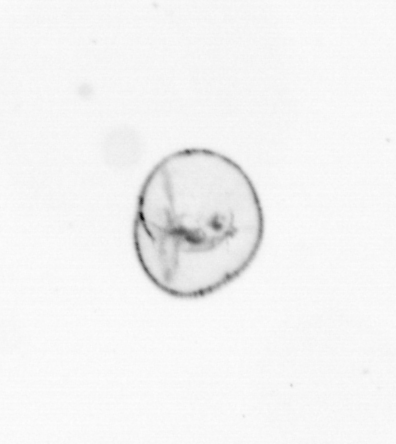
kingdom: Chromista
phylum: Myzozoa
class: Dinophyceae
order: Noctilucales
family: Noctilucaceae
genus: Noctiluca
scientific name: Noctiluca scintillans
